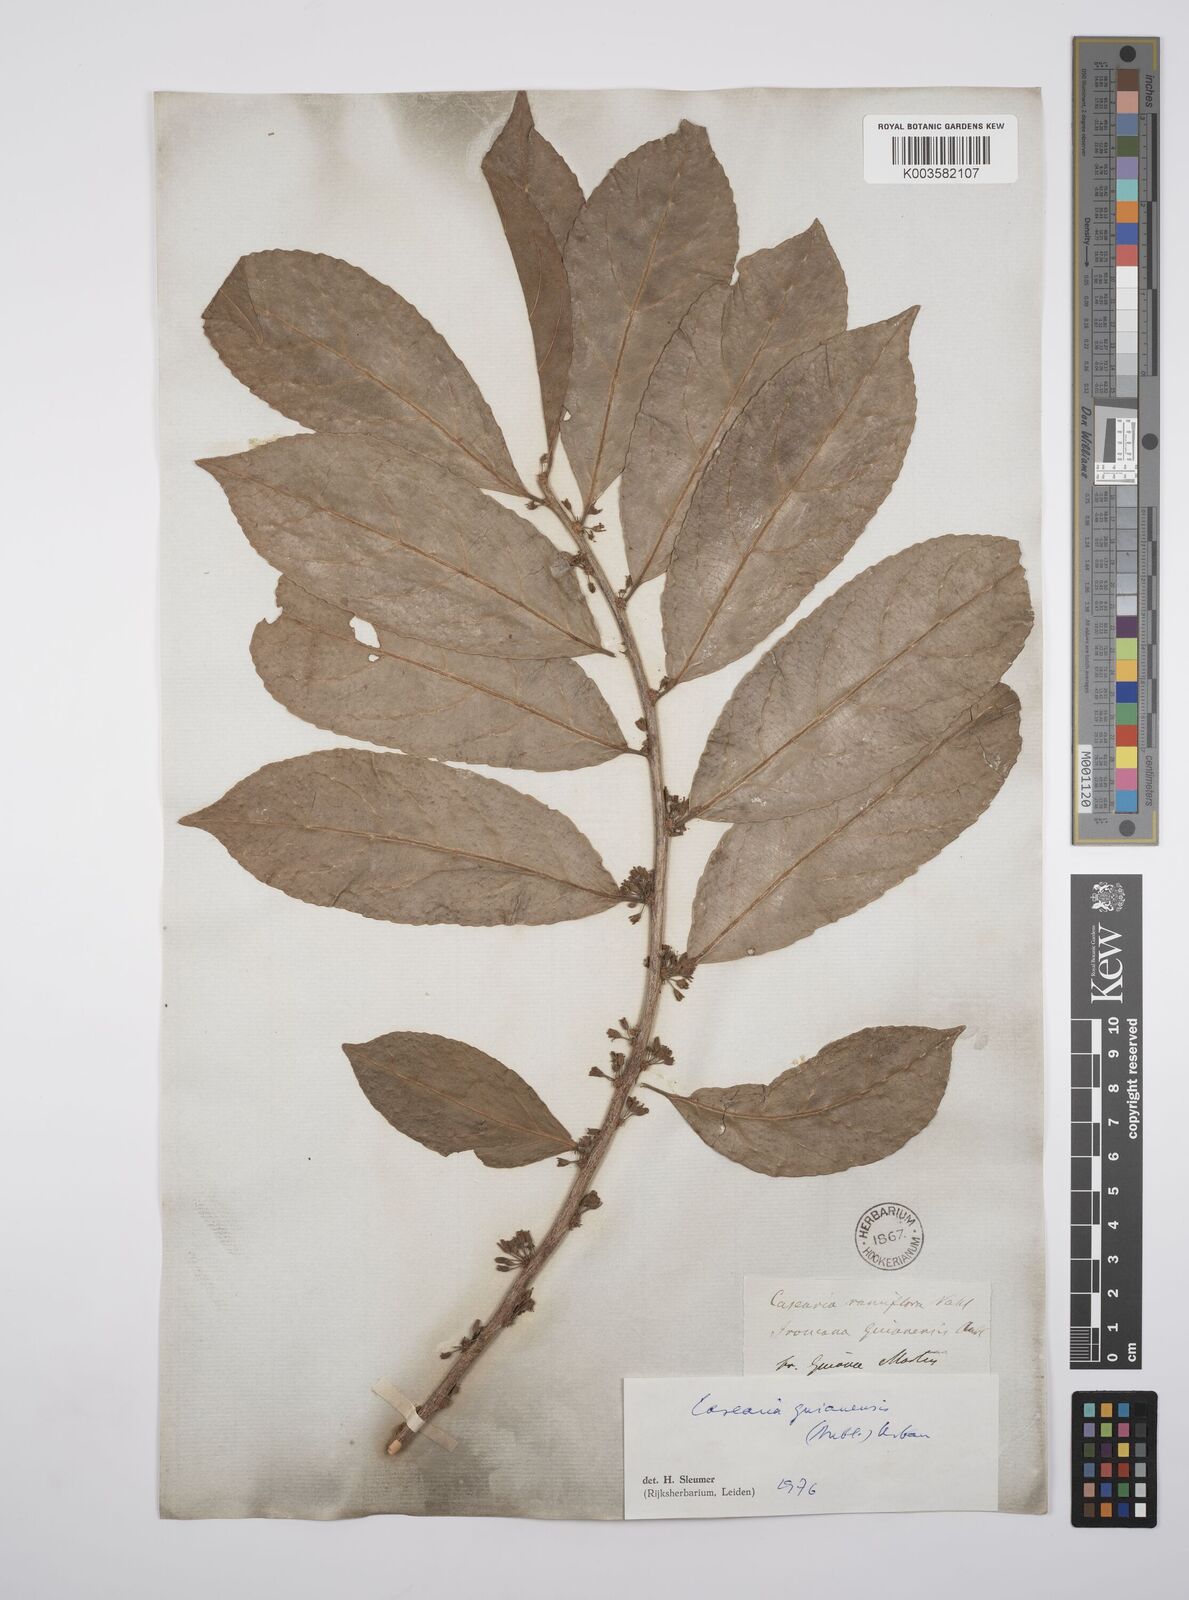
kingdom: Plantae
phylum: Tracheophyta
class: Magnoliopsida
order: Malpighiales
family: Salicaceae
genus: Casearia
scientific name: Casearia guianensis
